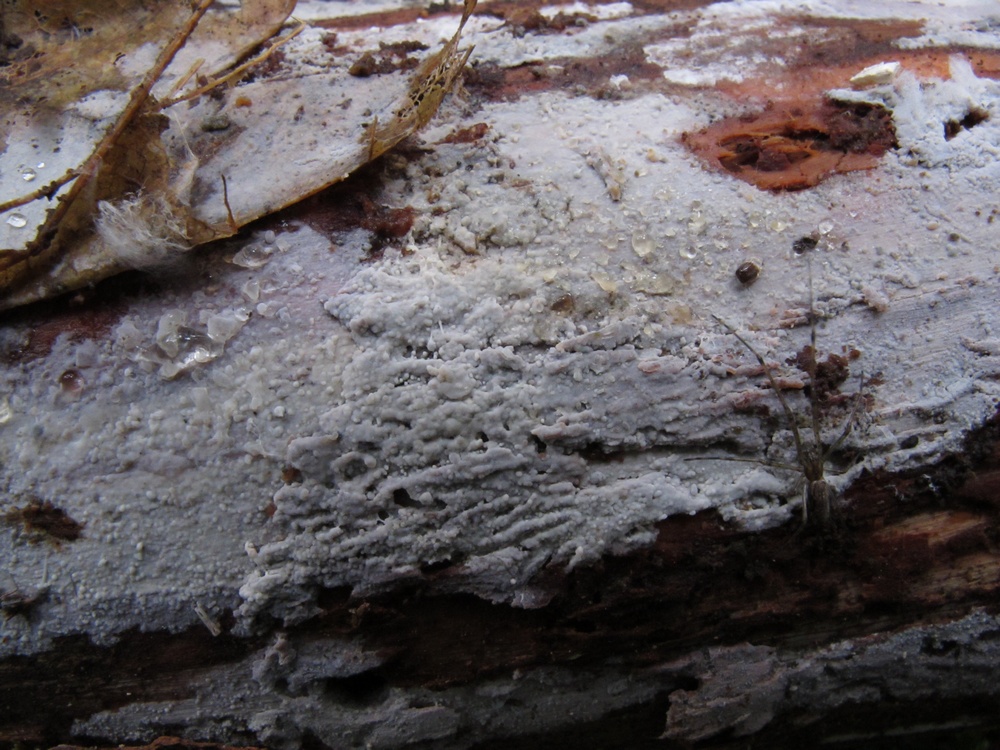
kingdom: Fungi
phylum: Basidiomycota
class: Agaricomycetes
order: Russulales
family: Xenasmataceae
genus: Xenasma
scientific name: Xenasma tulasnelloideum
